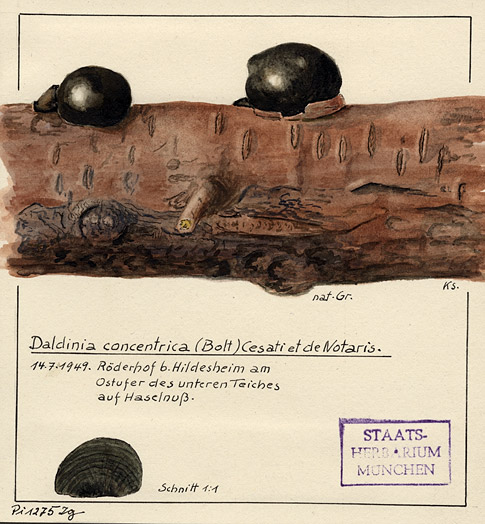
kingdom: Fungi
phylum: Ascomycota
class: Sordariomycetes
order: Xylariales
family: Hypoxylaceae
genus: Daldinia
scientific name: Daldinia concentrica
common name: Cramp balls
